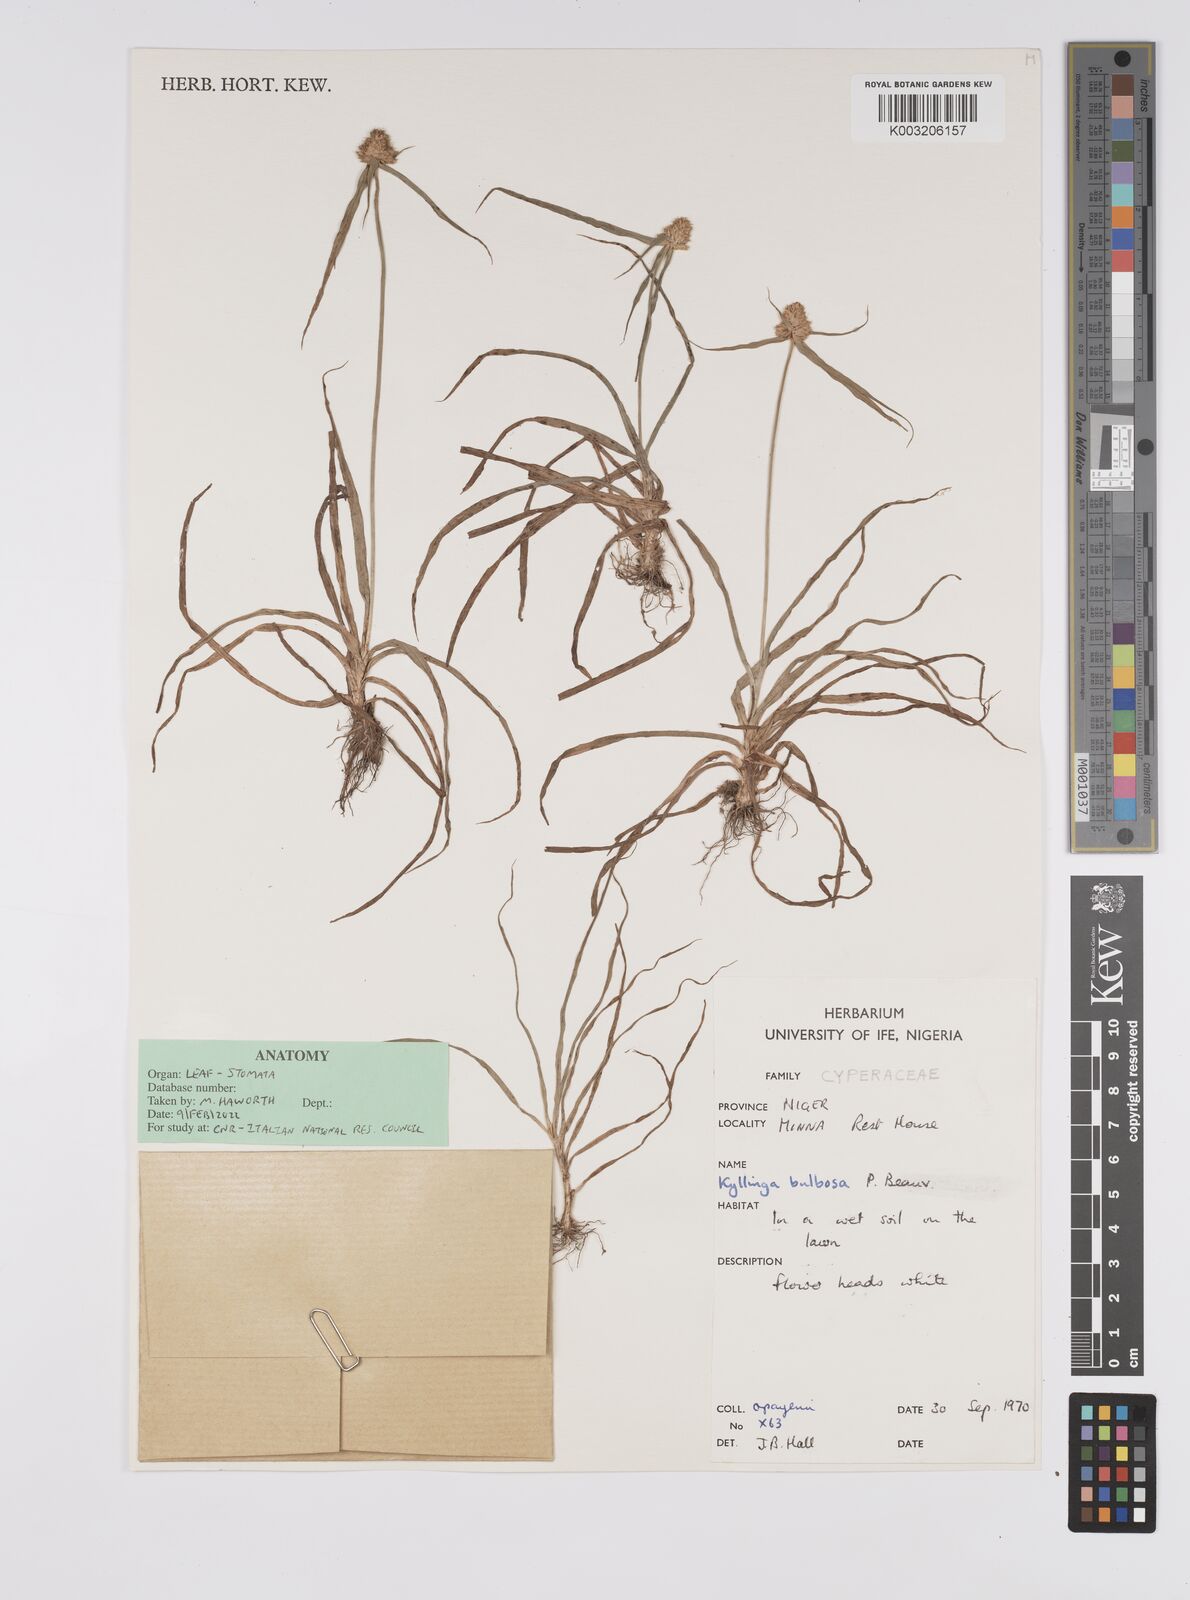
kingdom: Plantae
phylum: Tracheophyta
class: Liliopsida
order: Poales
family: Cyperaceae
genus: Cyperus
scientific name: Cyperus
